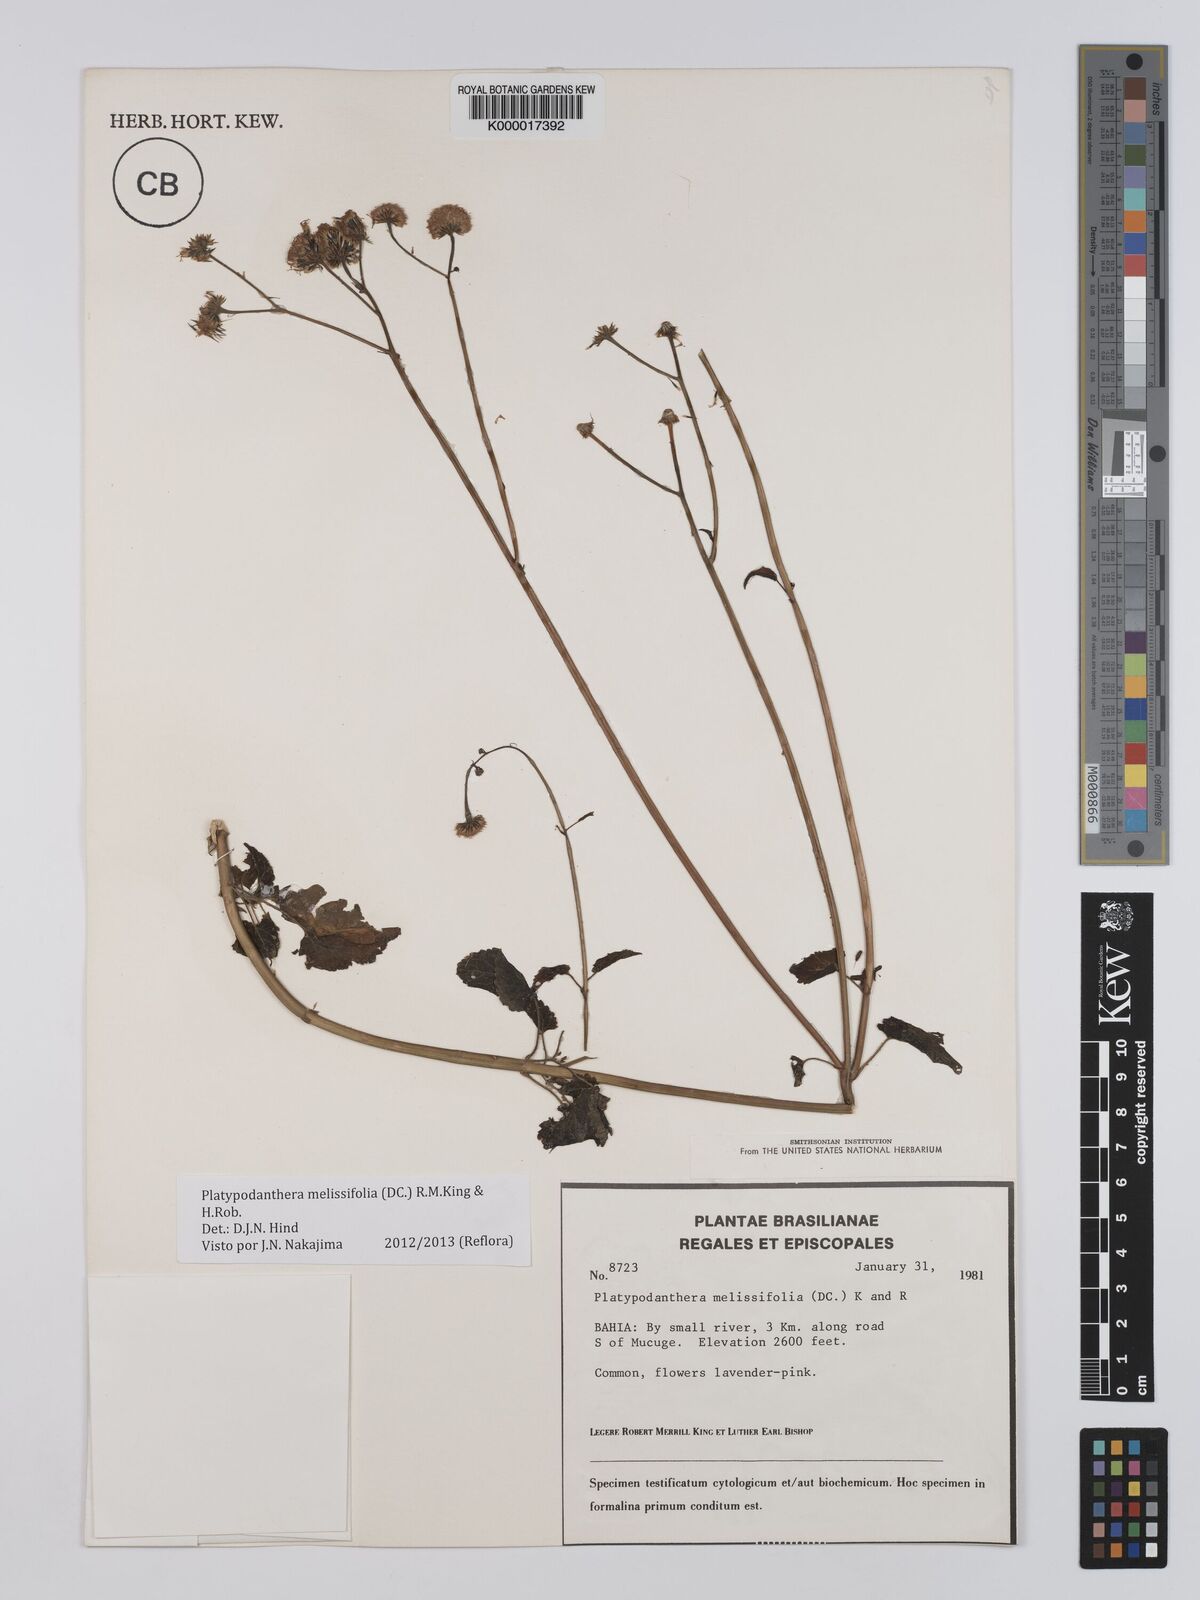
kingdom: Plantae
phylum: Tracheophyta
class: Magnoliopsida
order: Asterales
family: Asteraceae
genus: Platypodanthera
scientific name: Platypodanthera melissifolia
